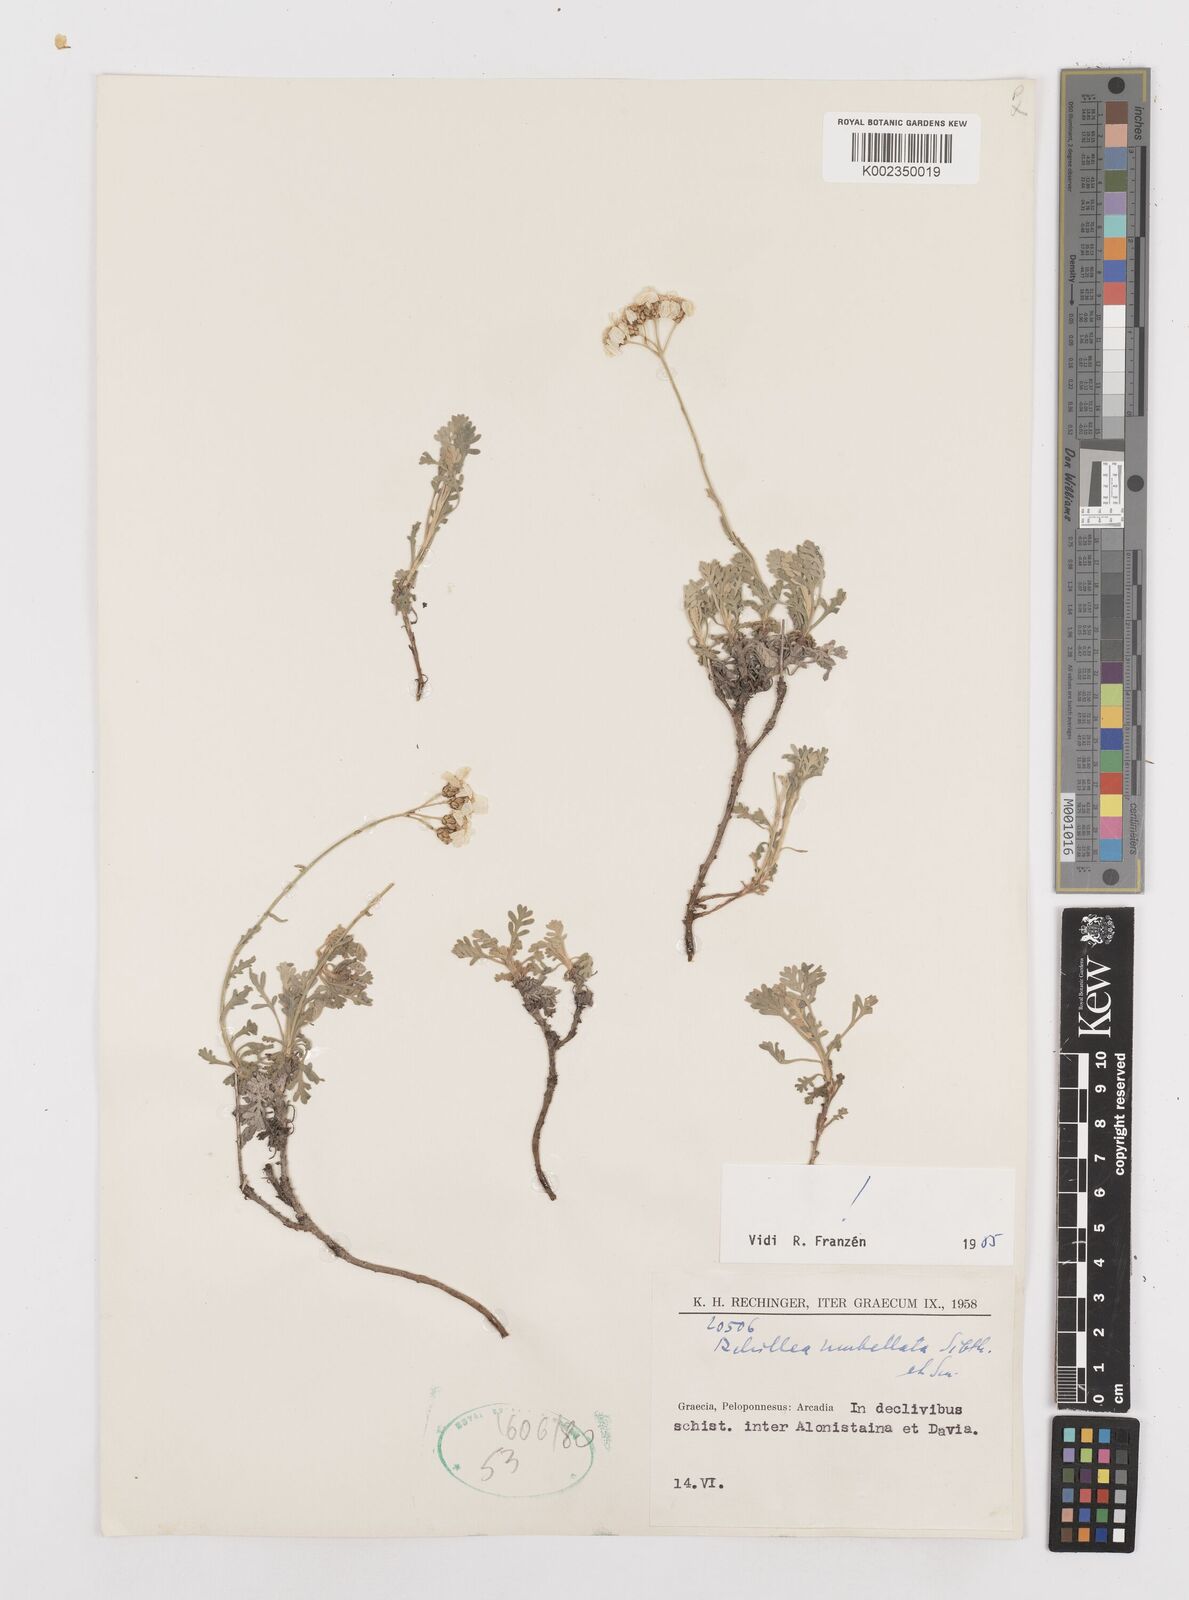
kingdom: Plantae
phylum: Tracheophyta
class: Magnoliopsida
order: Asterales
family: Asteraceae
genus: Achillea
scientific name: Achillea umbellata
